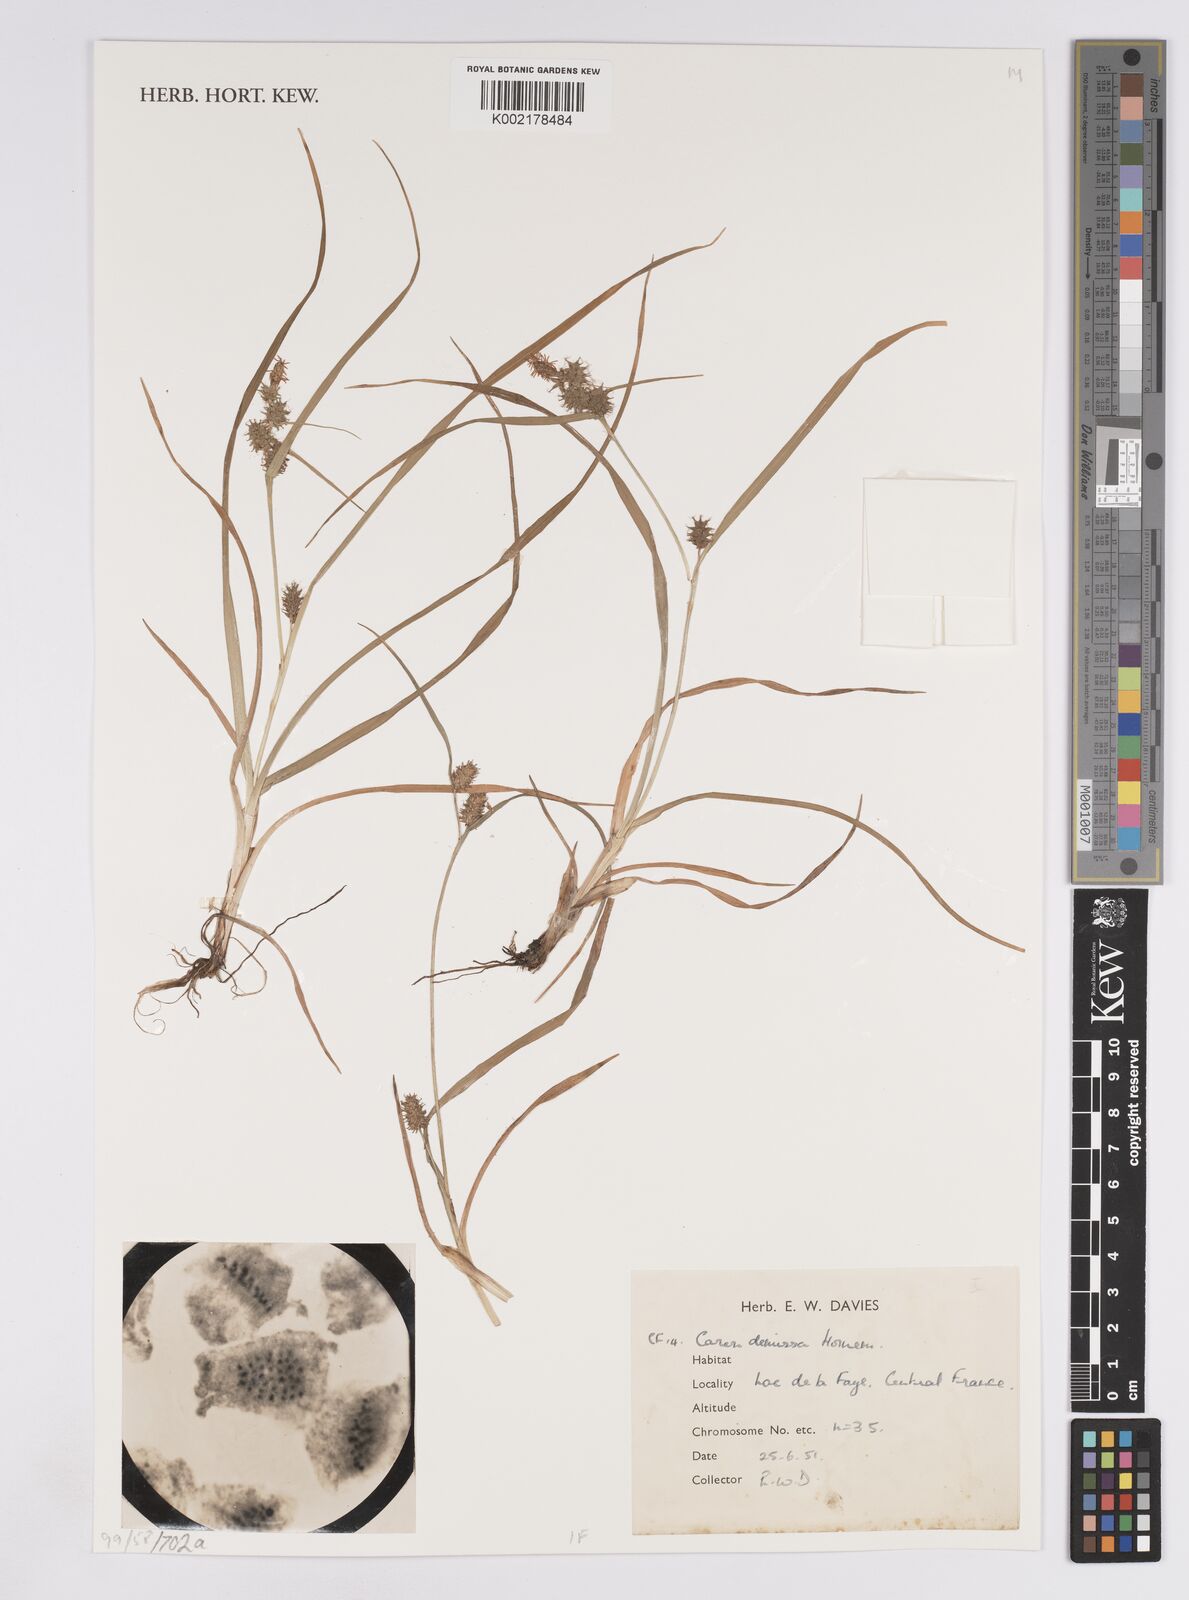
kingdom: Plantae
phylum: Tracheophyta
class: Liliopsida
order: Poales
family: Cyperaceae
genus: Carex
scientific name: Carex demissa
